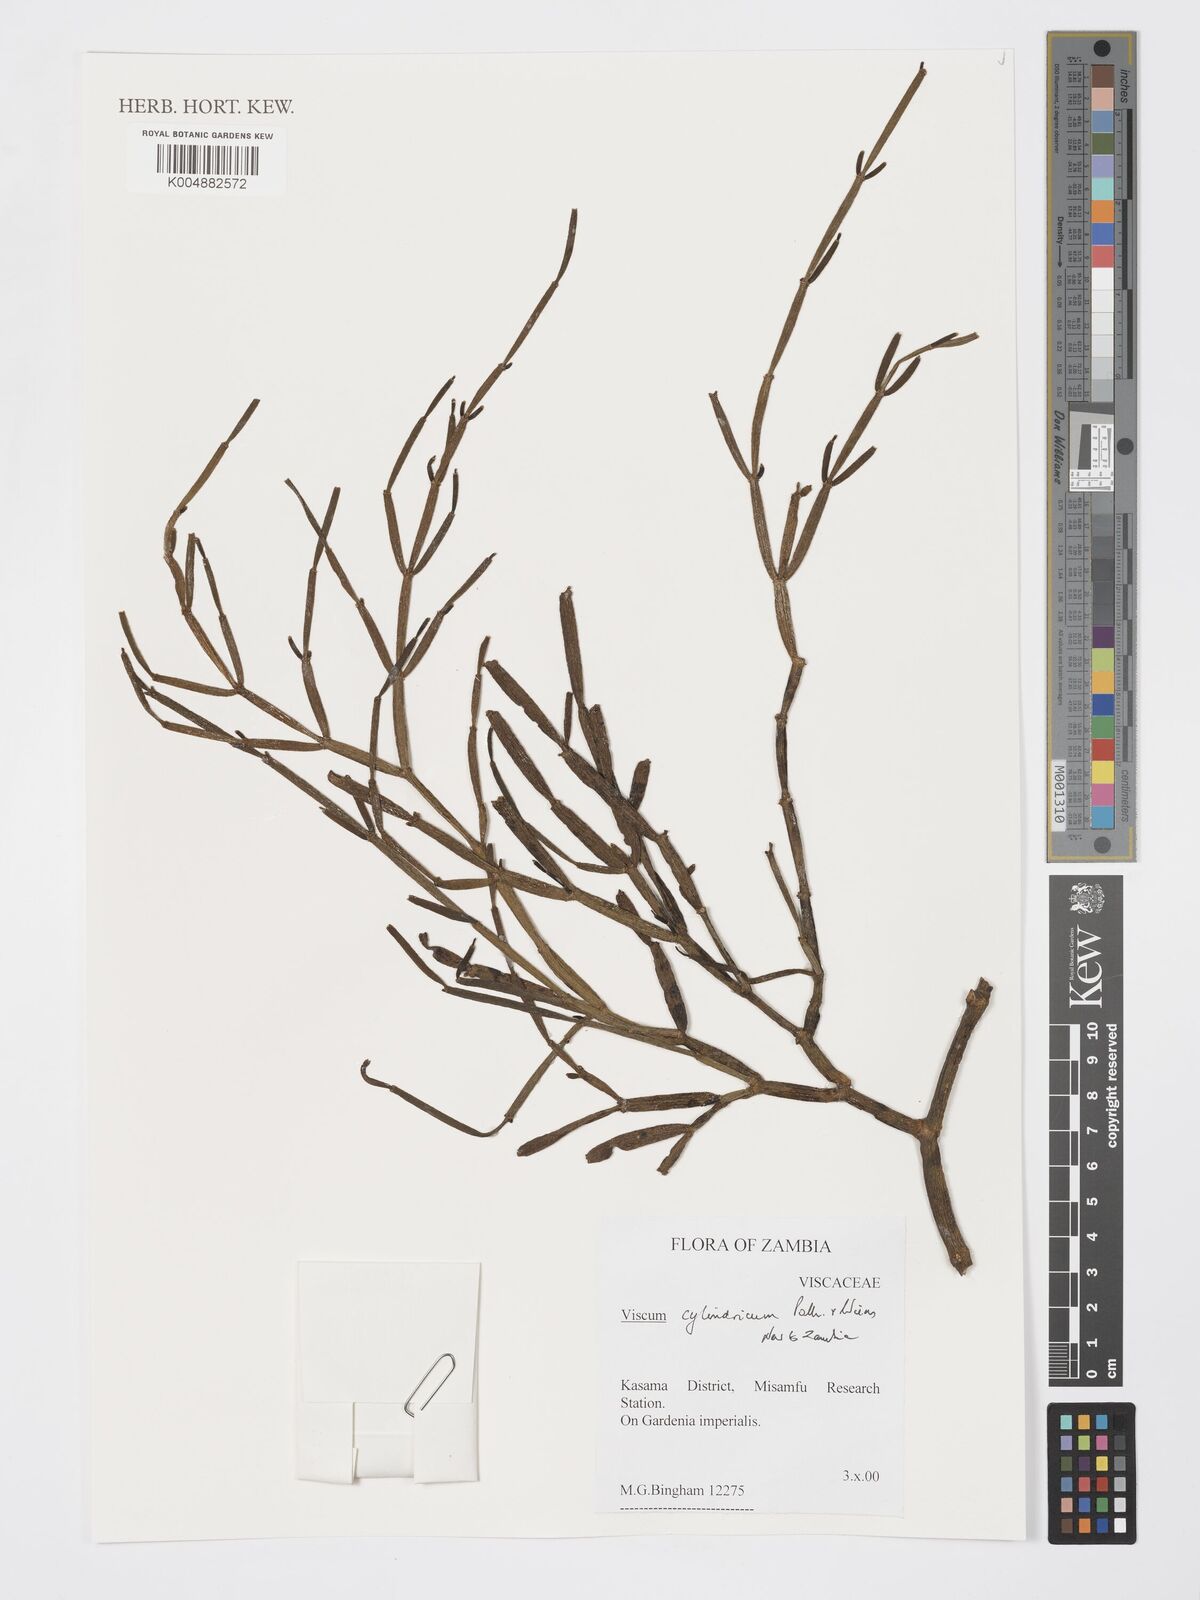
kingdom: Plantae
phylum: Tracheophyta
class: Magnoliopsida
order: Santalales
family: Viscaceae
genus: Viscum
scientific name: Viscum cylindricum
